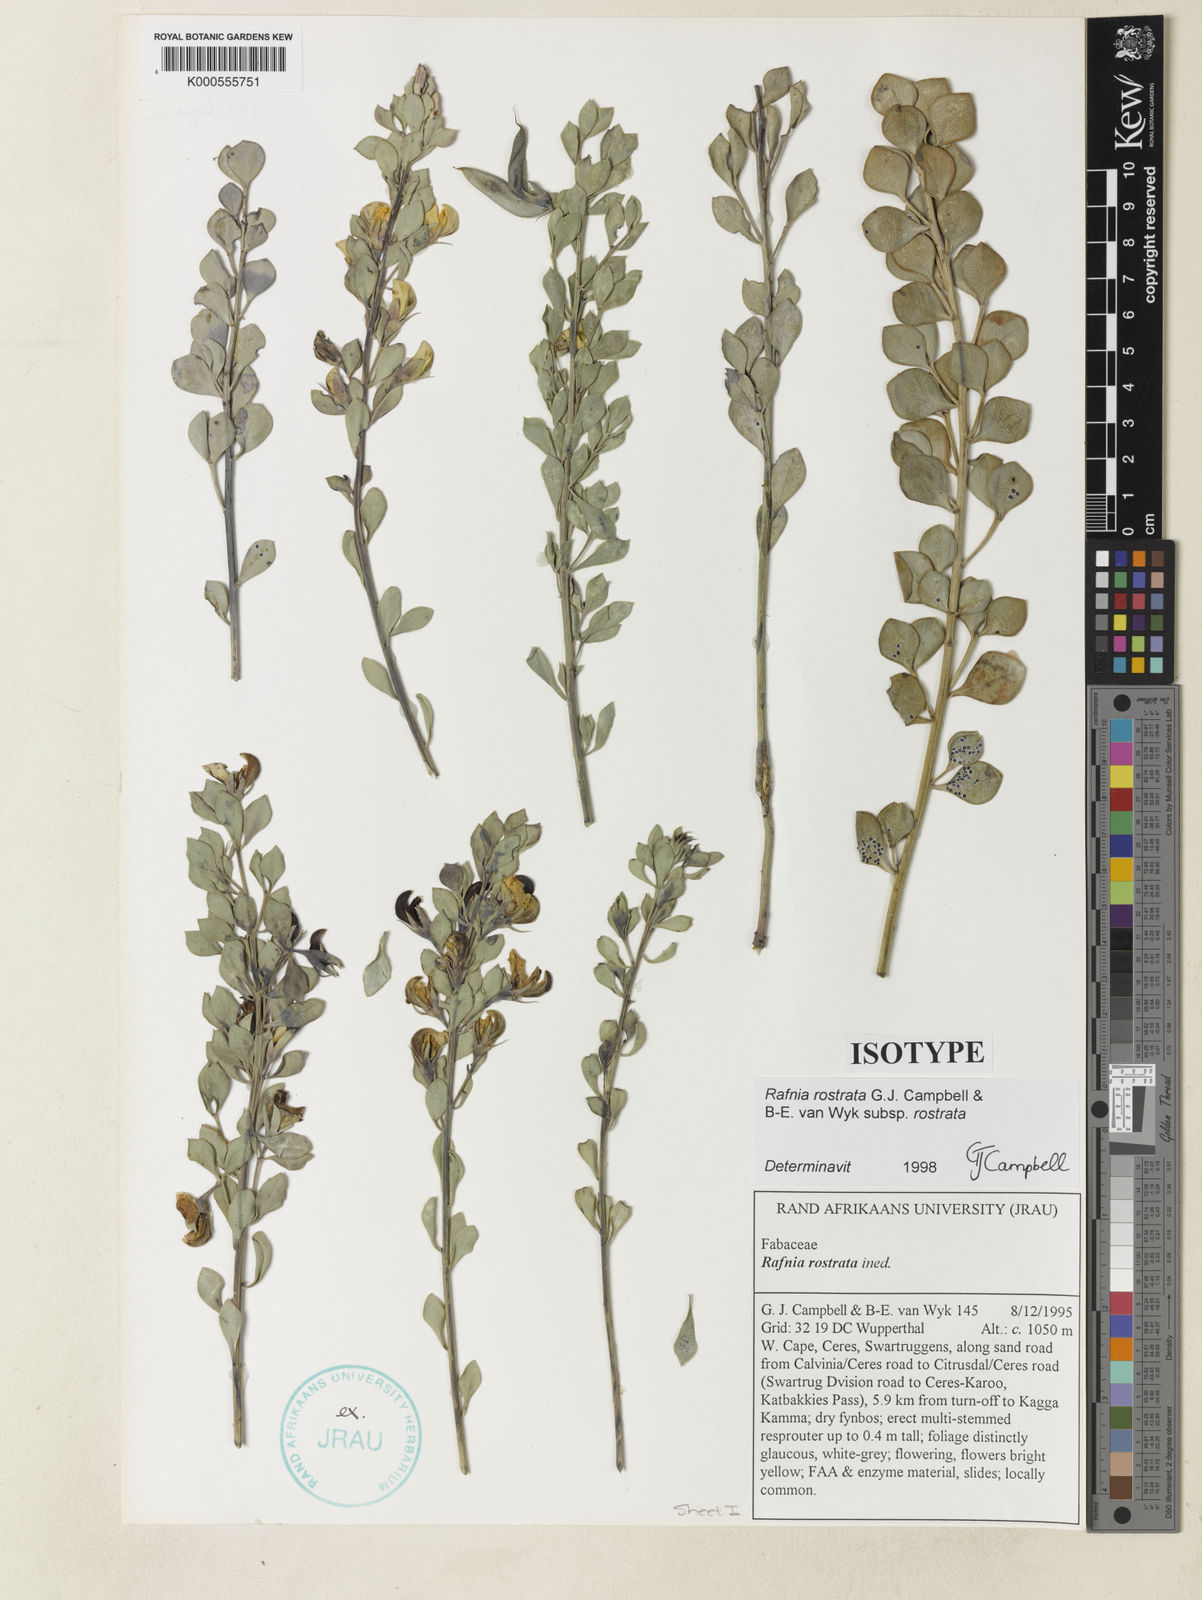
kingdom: Plantae
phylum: Tracheophyta
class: Magnoliopsida
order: Fabales
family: Fabaceae
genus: Rafnia
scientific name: Rafnia rostrata
